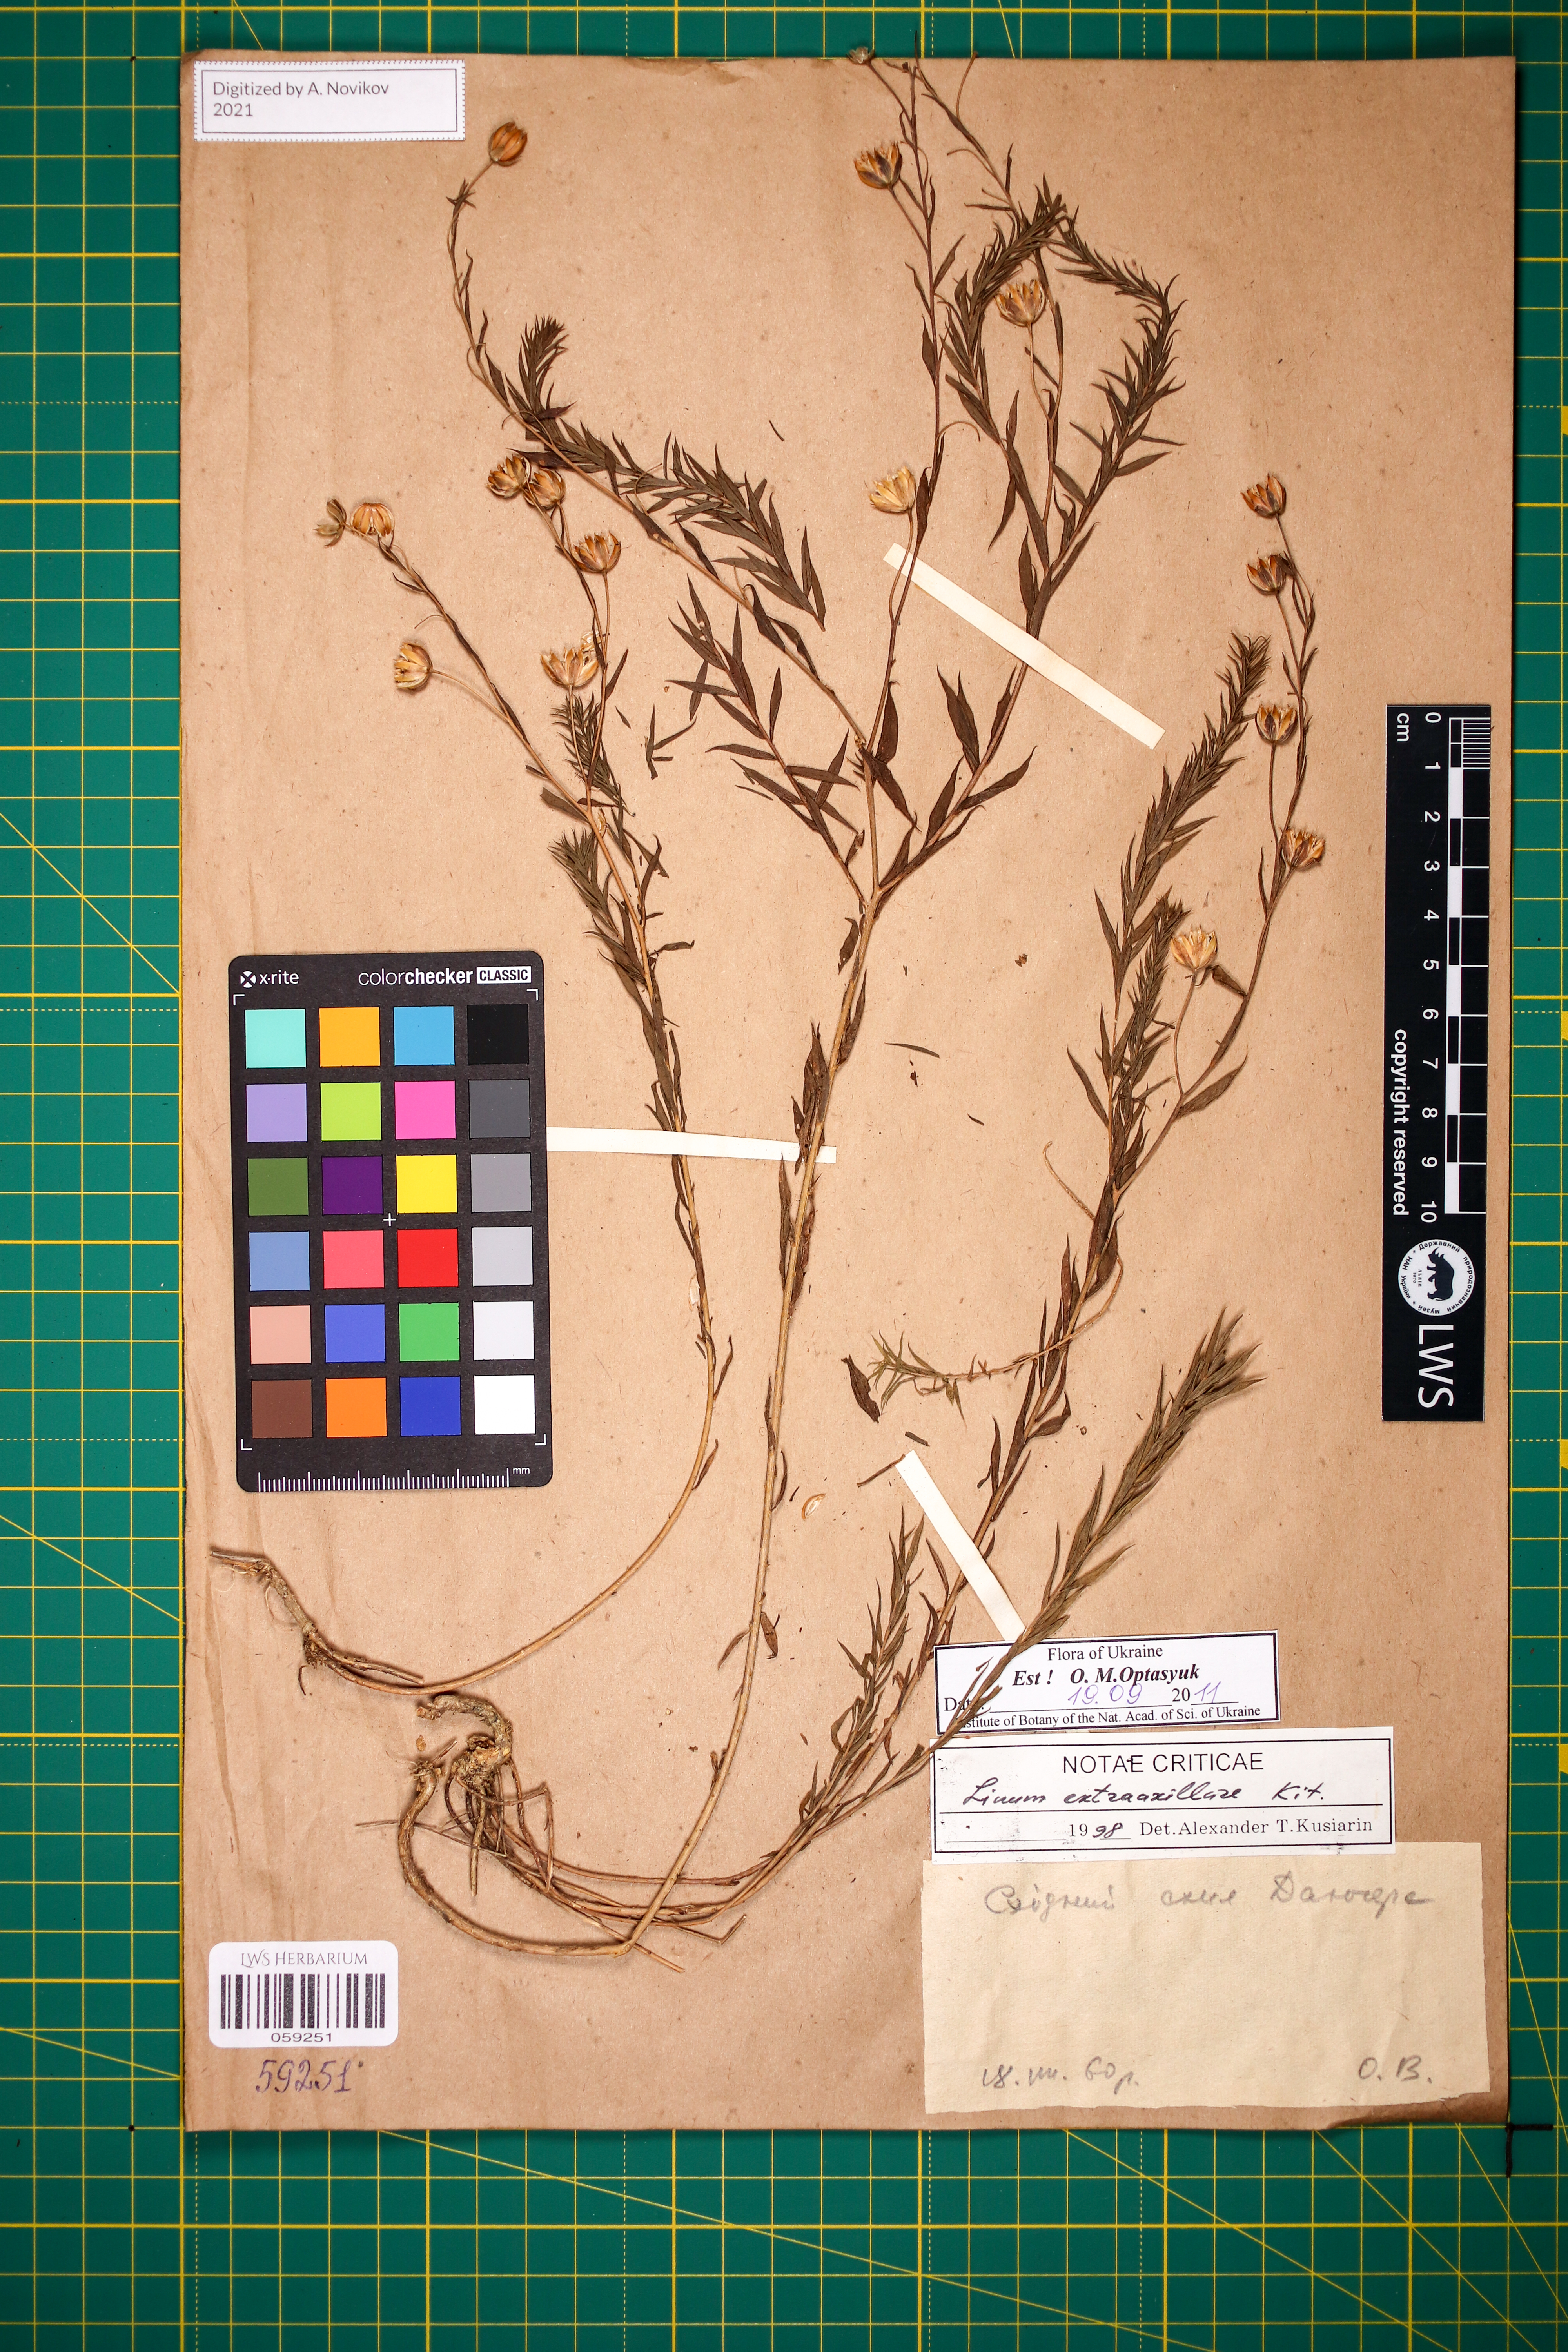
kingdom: Plantae
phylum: Tracheophyta
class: Magnoliopsida
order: Malpighiales
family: Linaceae
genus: Linum
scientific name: Linum perenne
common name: Blue flax
